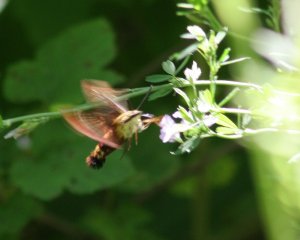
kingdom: Animalia
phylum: Arthropoda
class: Insecta
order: Lepidoptera
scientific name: Lepidoptera
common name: Butterflies
